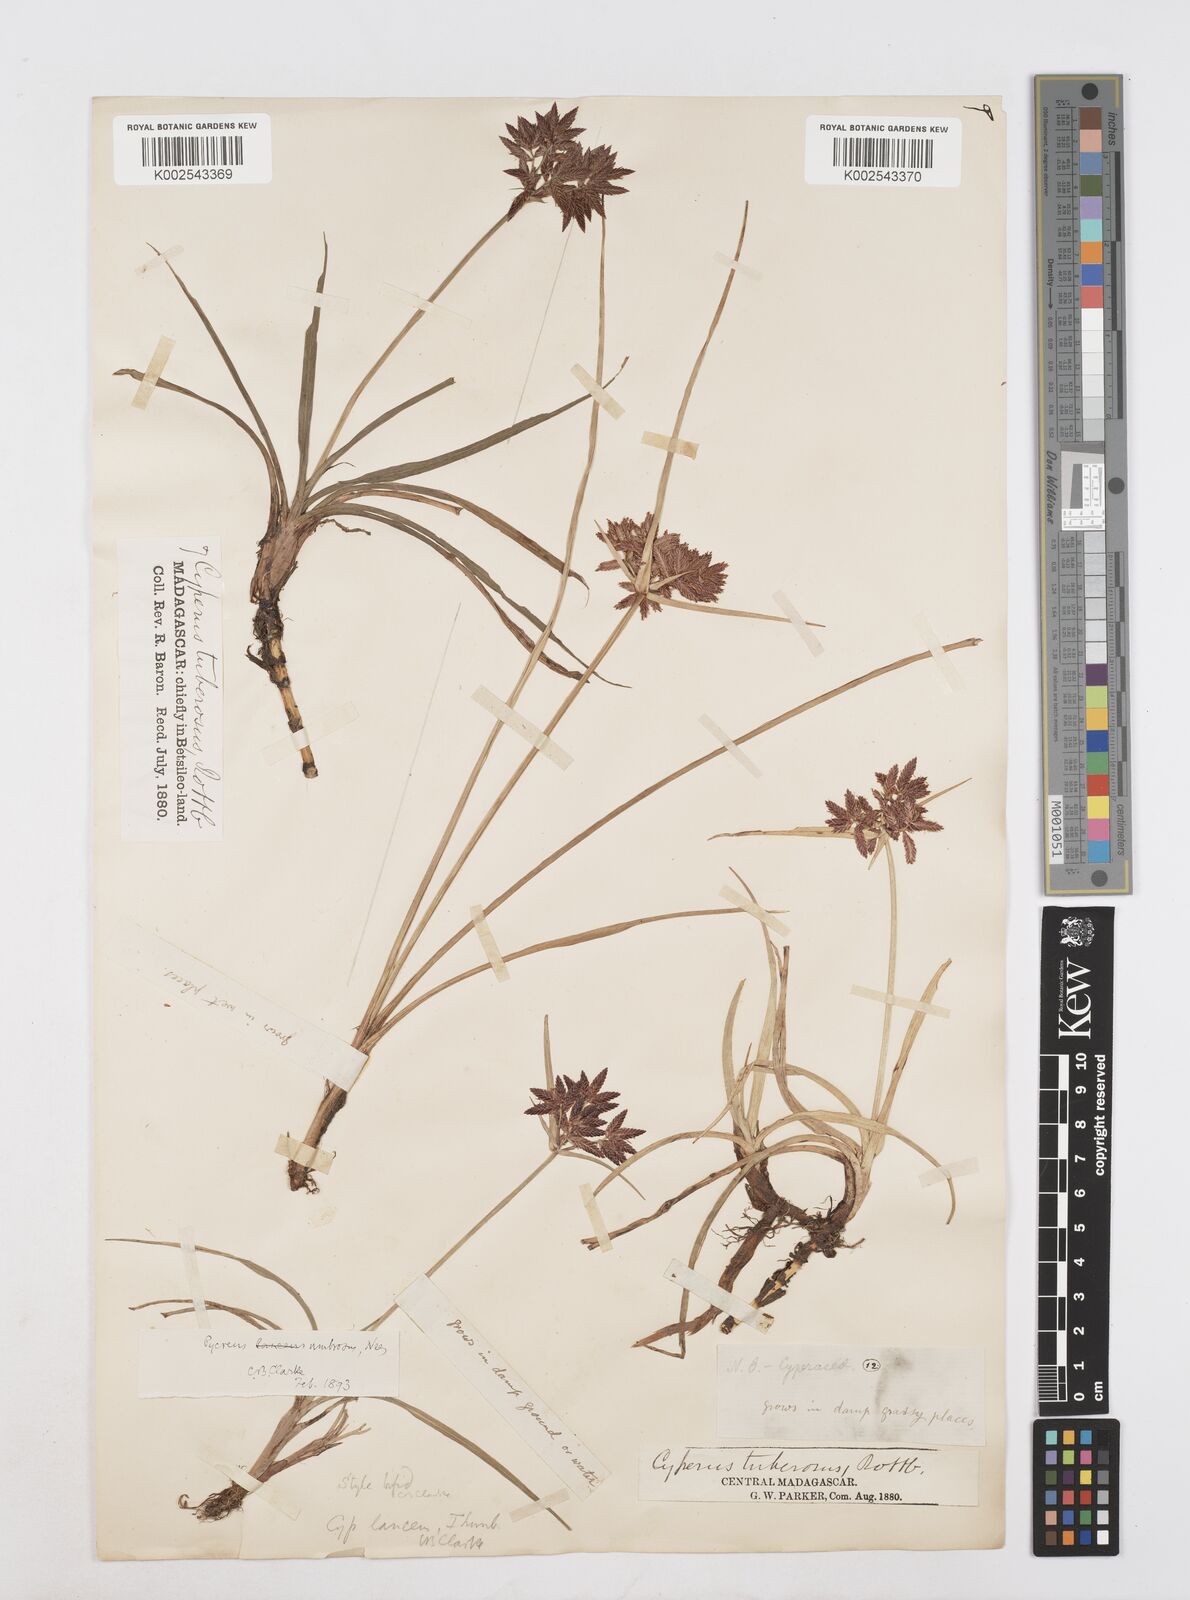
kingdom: Plantae
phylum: Tracheophyta
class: Liliopsida
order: Poales
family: Cyperaceae
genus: Cyperus
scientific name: Cyperus nitidus
